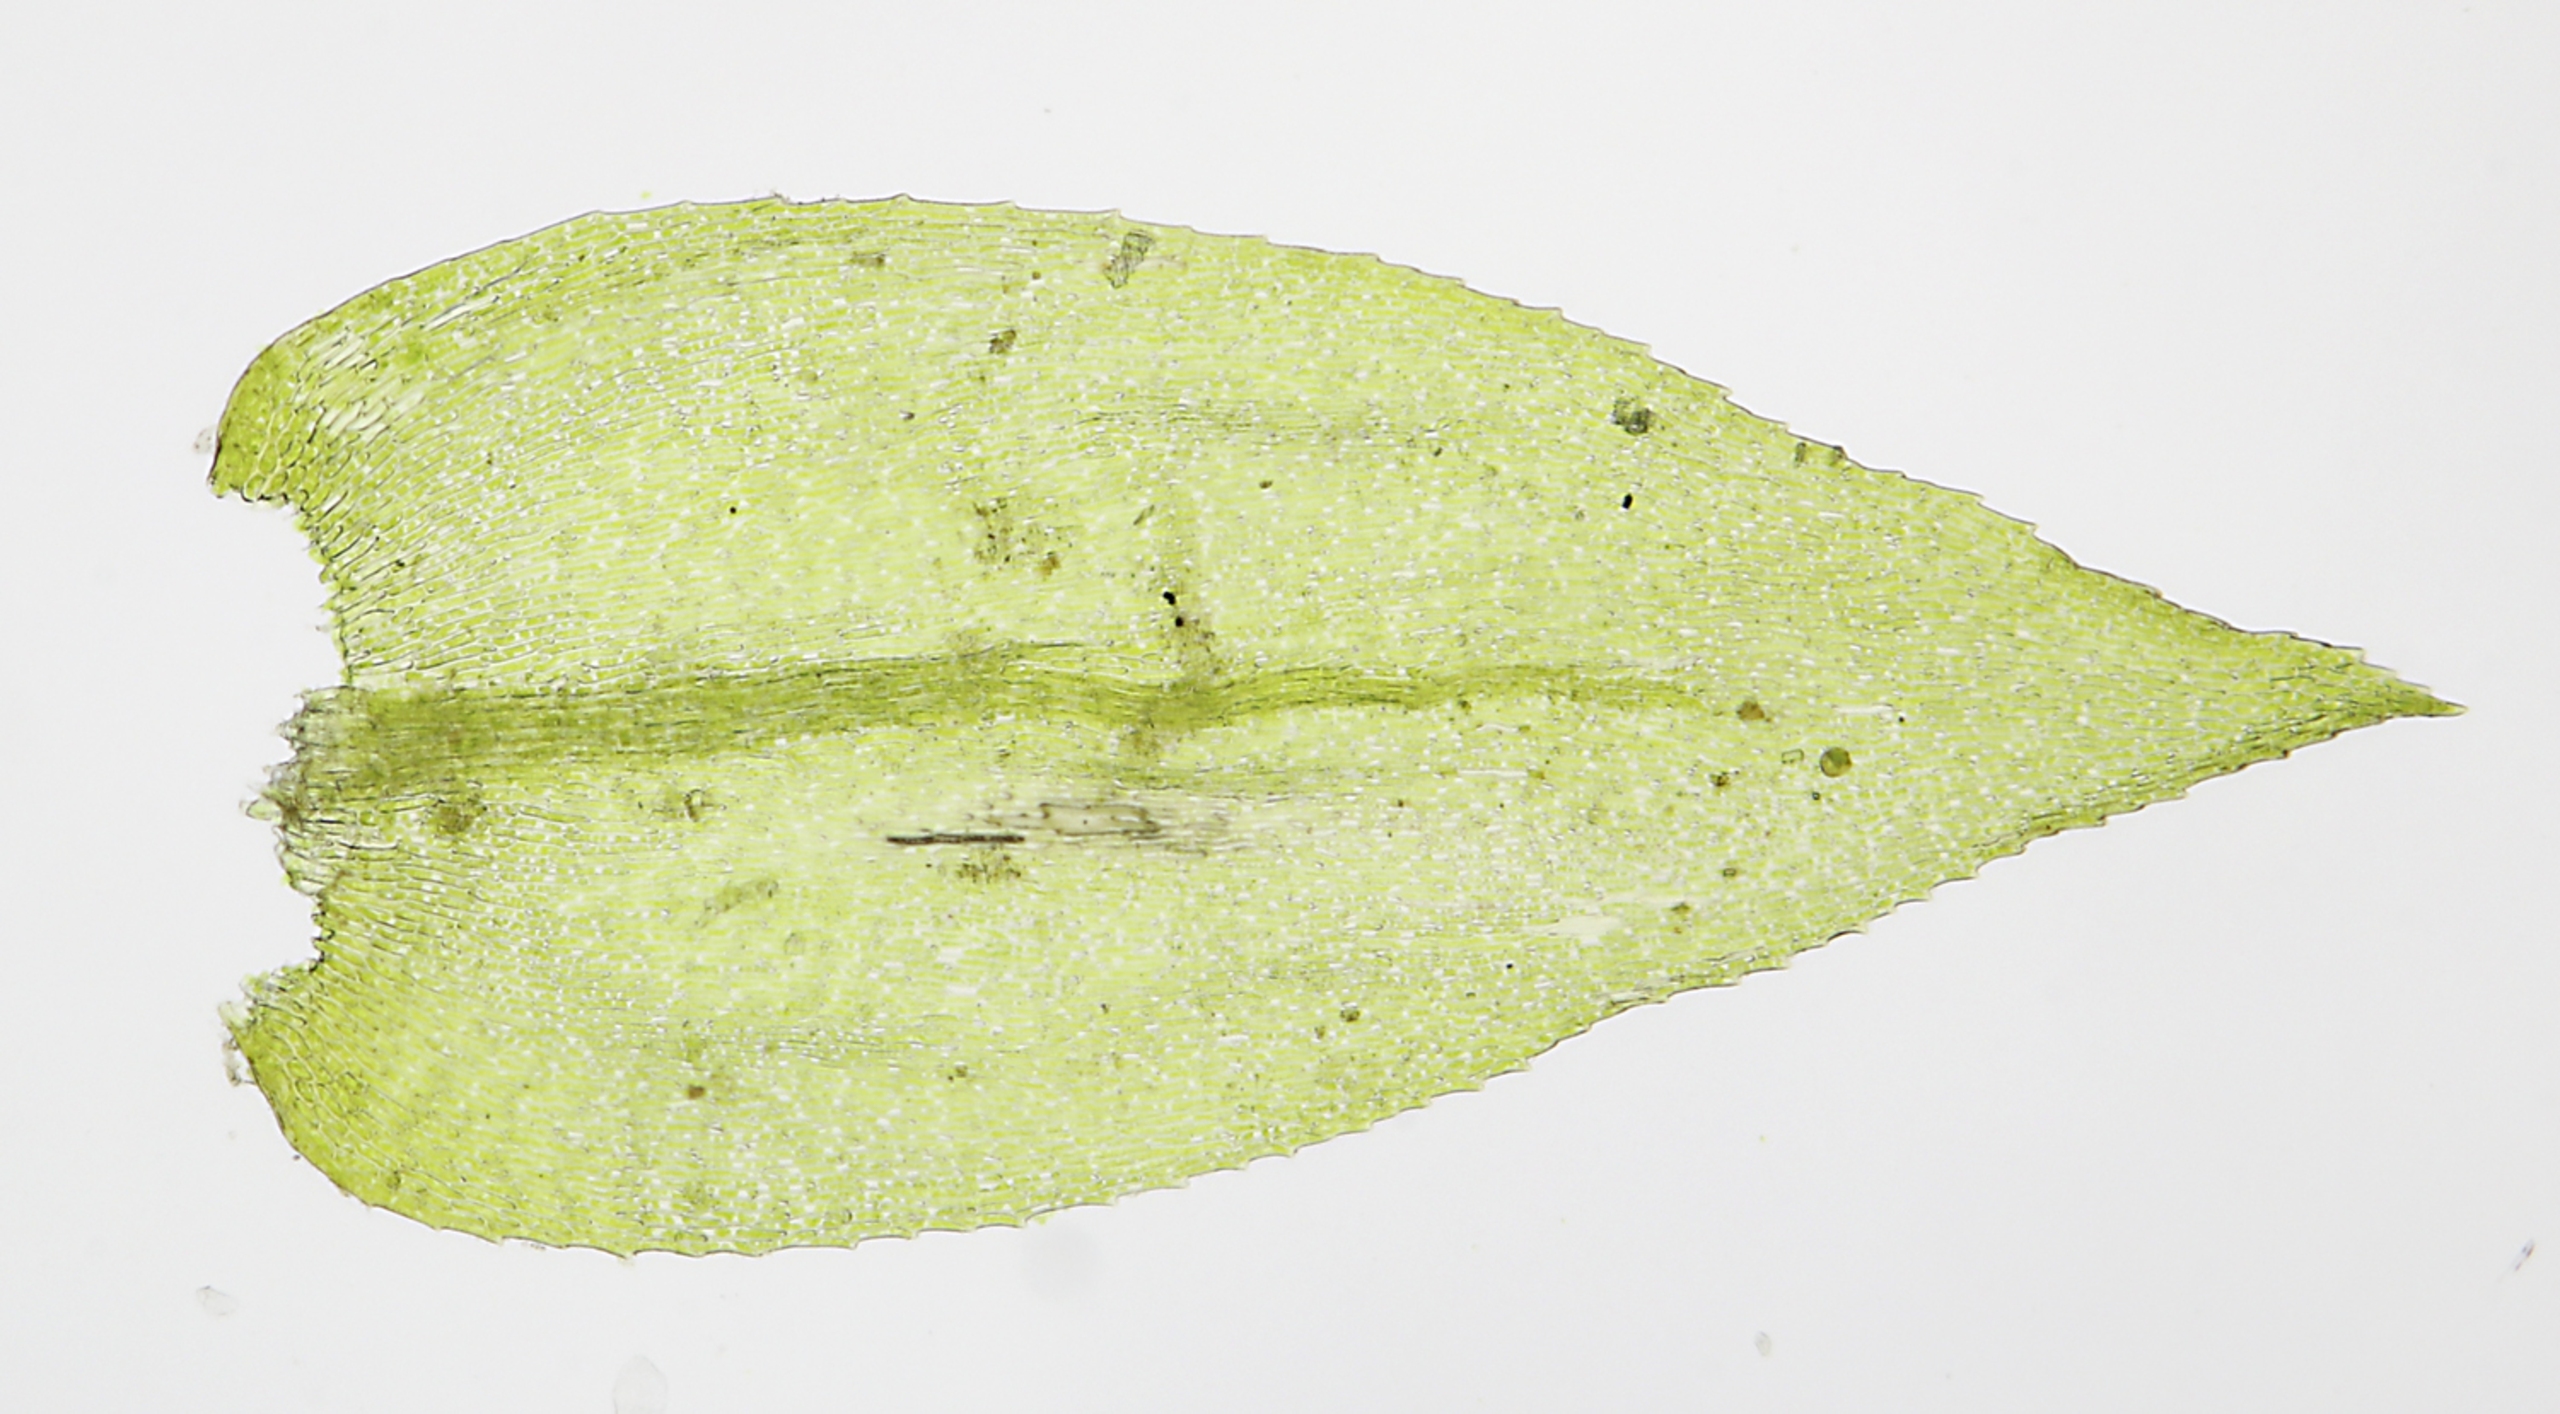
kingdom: Plantae
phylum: Bryophyta
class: Bryopsida
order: Hypnales
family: Brachytheciaceae
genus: Oxyrrhynchium
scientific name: Oxyrrhynchium schleicheri
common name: Vredet vortetand
